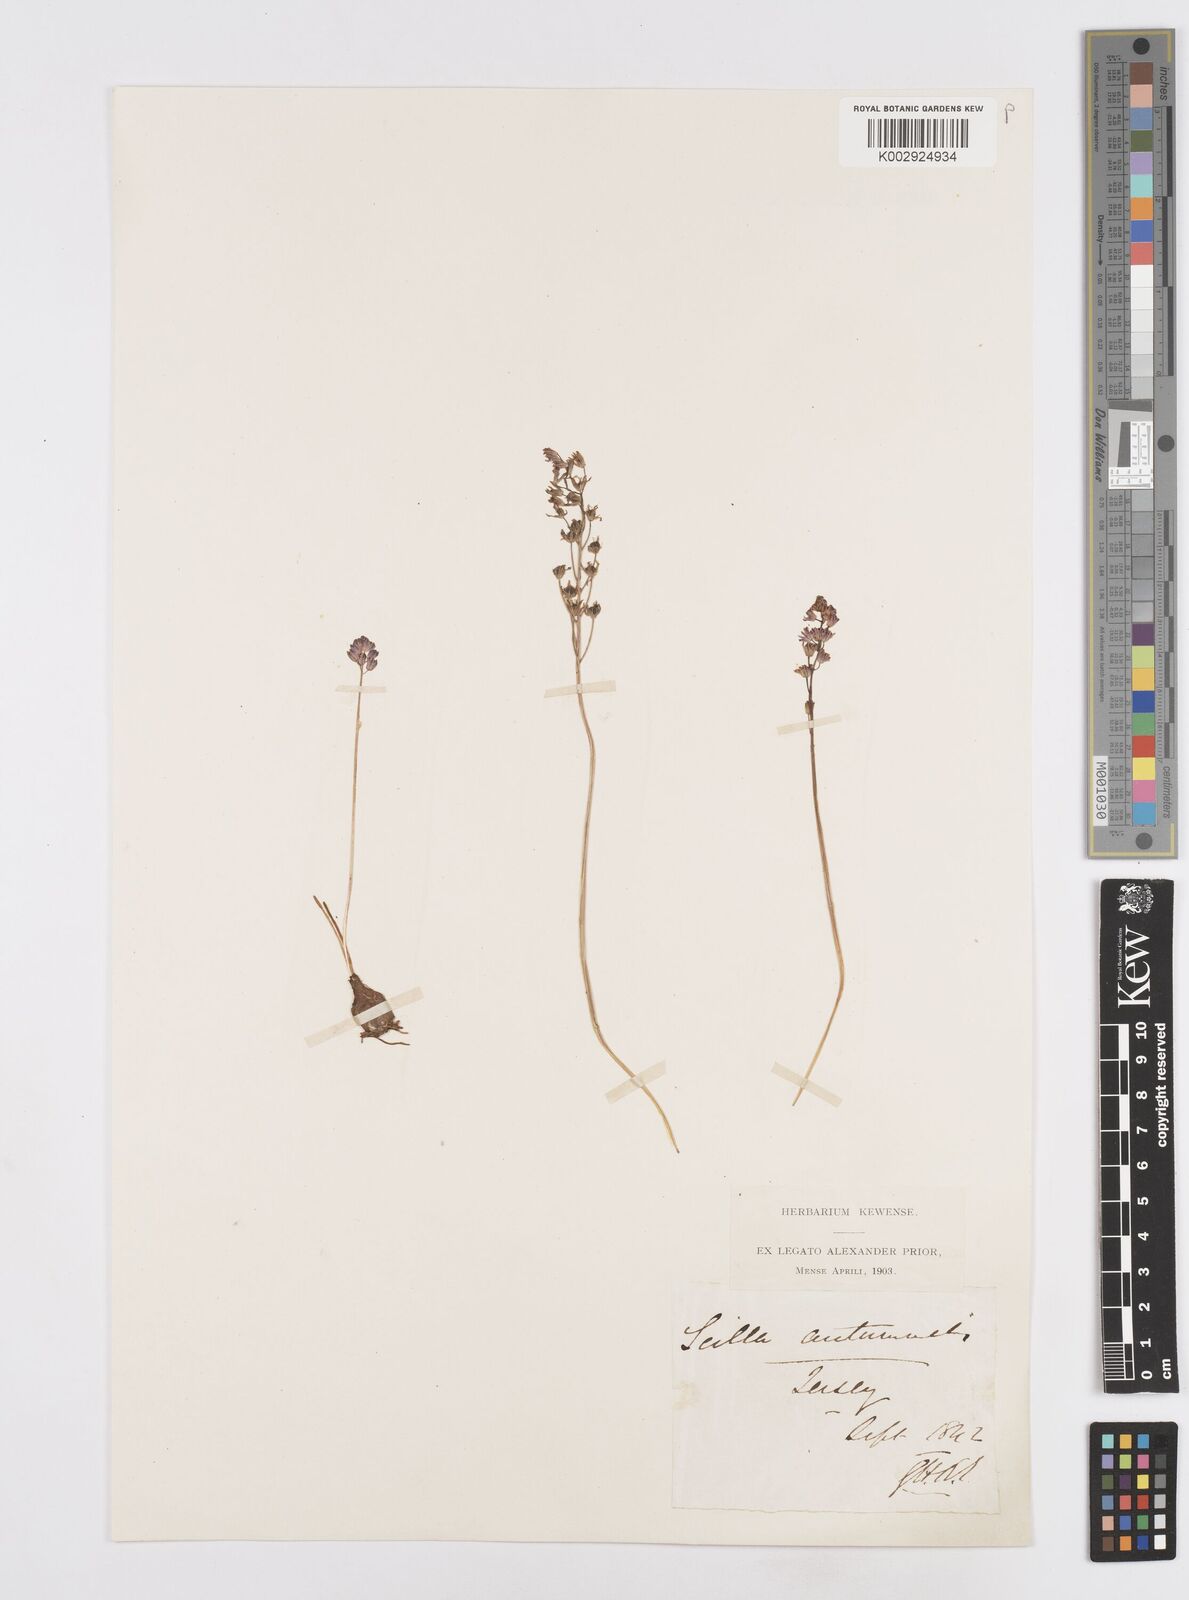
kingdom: Plantae
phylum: Tracheophyta
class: Liliopsida
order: Asparagales
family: Asparagaceae
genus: Scilla
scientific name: Scilla
